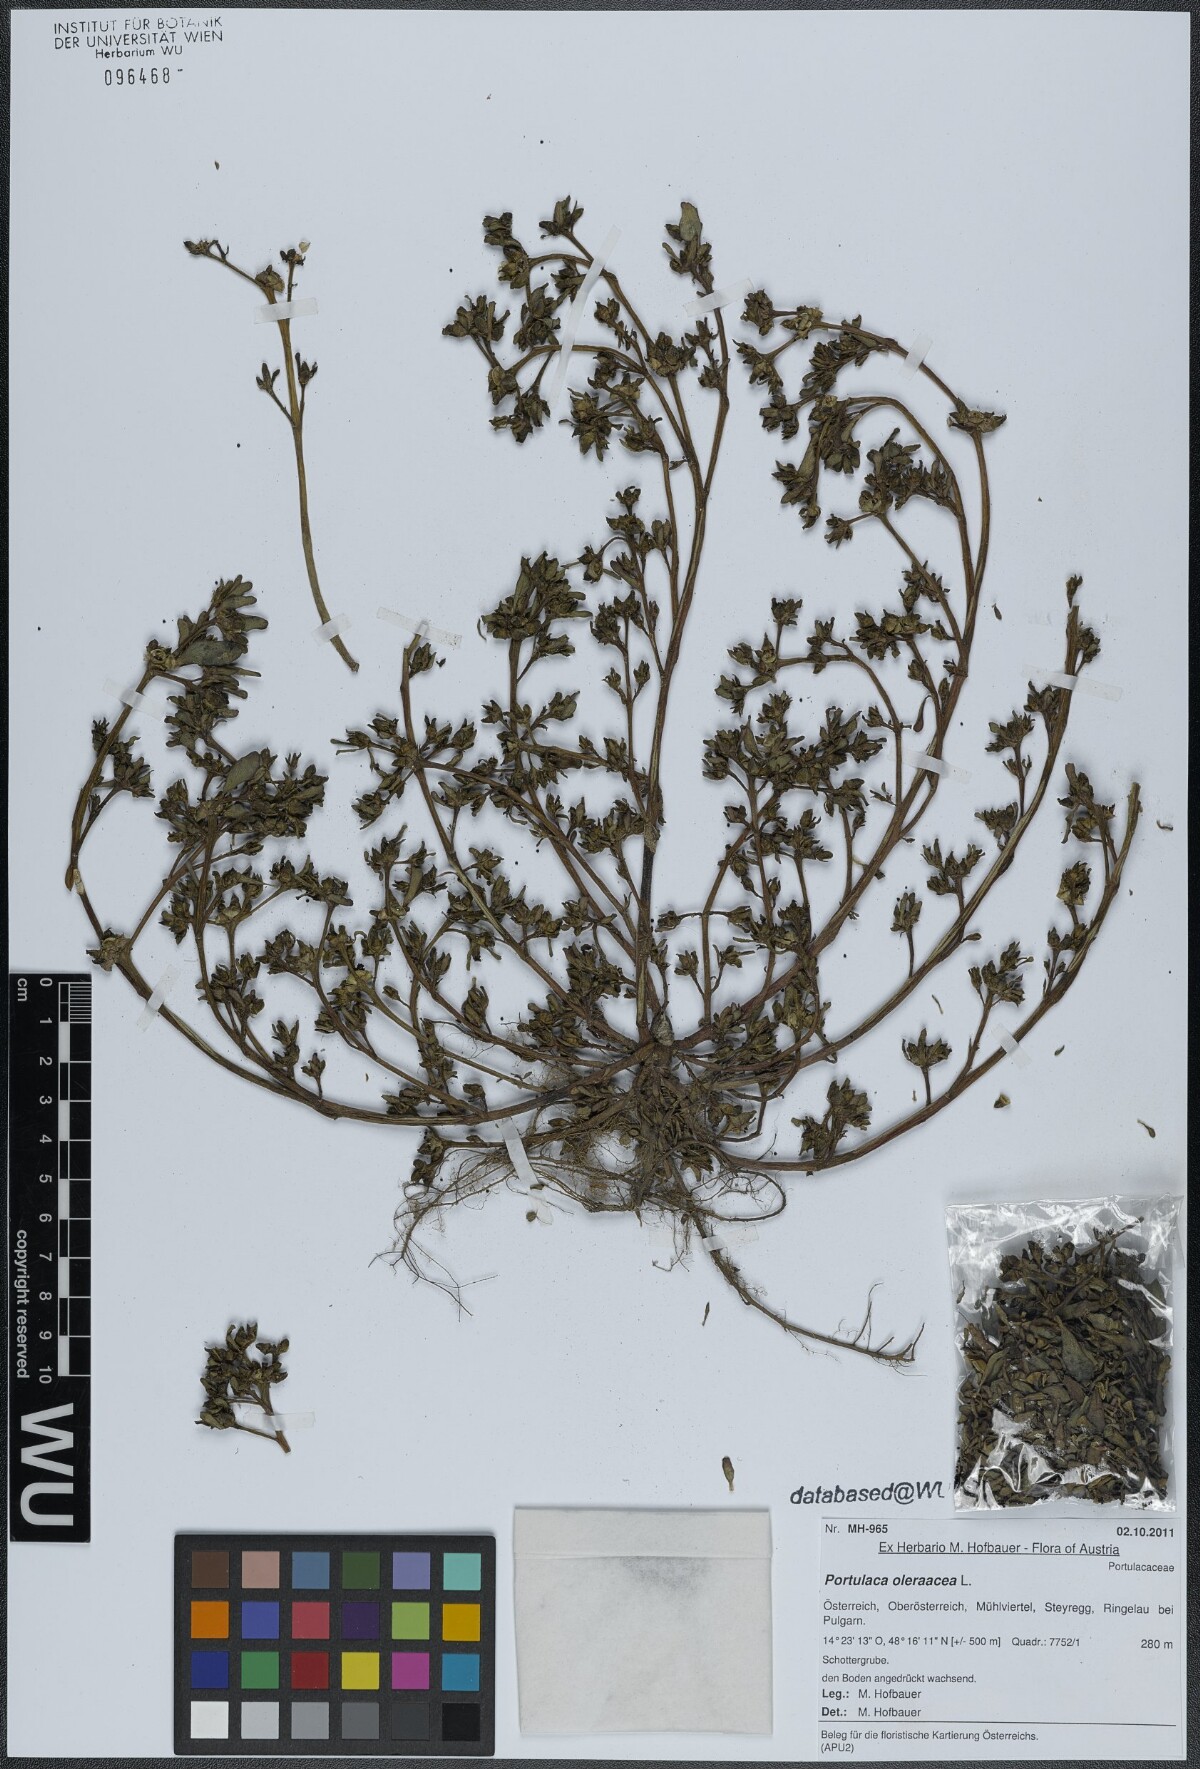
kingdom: Plantae
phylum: Tracheophyta
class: Magnoliopsida
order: Caryophyllales
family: Portulacaceae
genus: Portulaca
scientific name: Portulaca oleracea
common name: Common purslane
